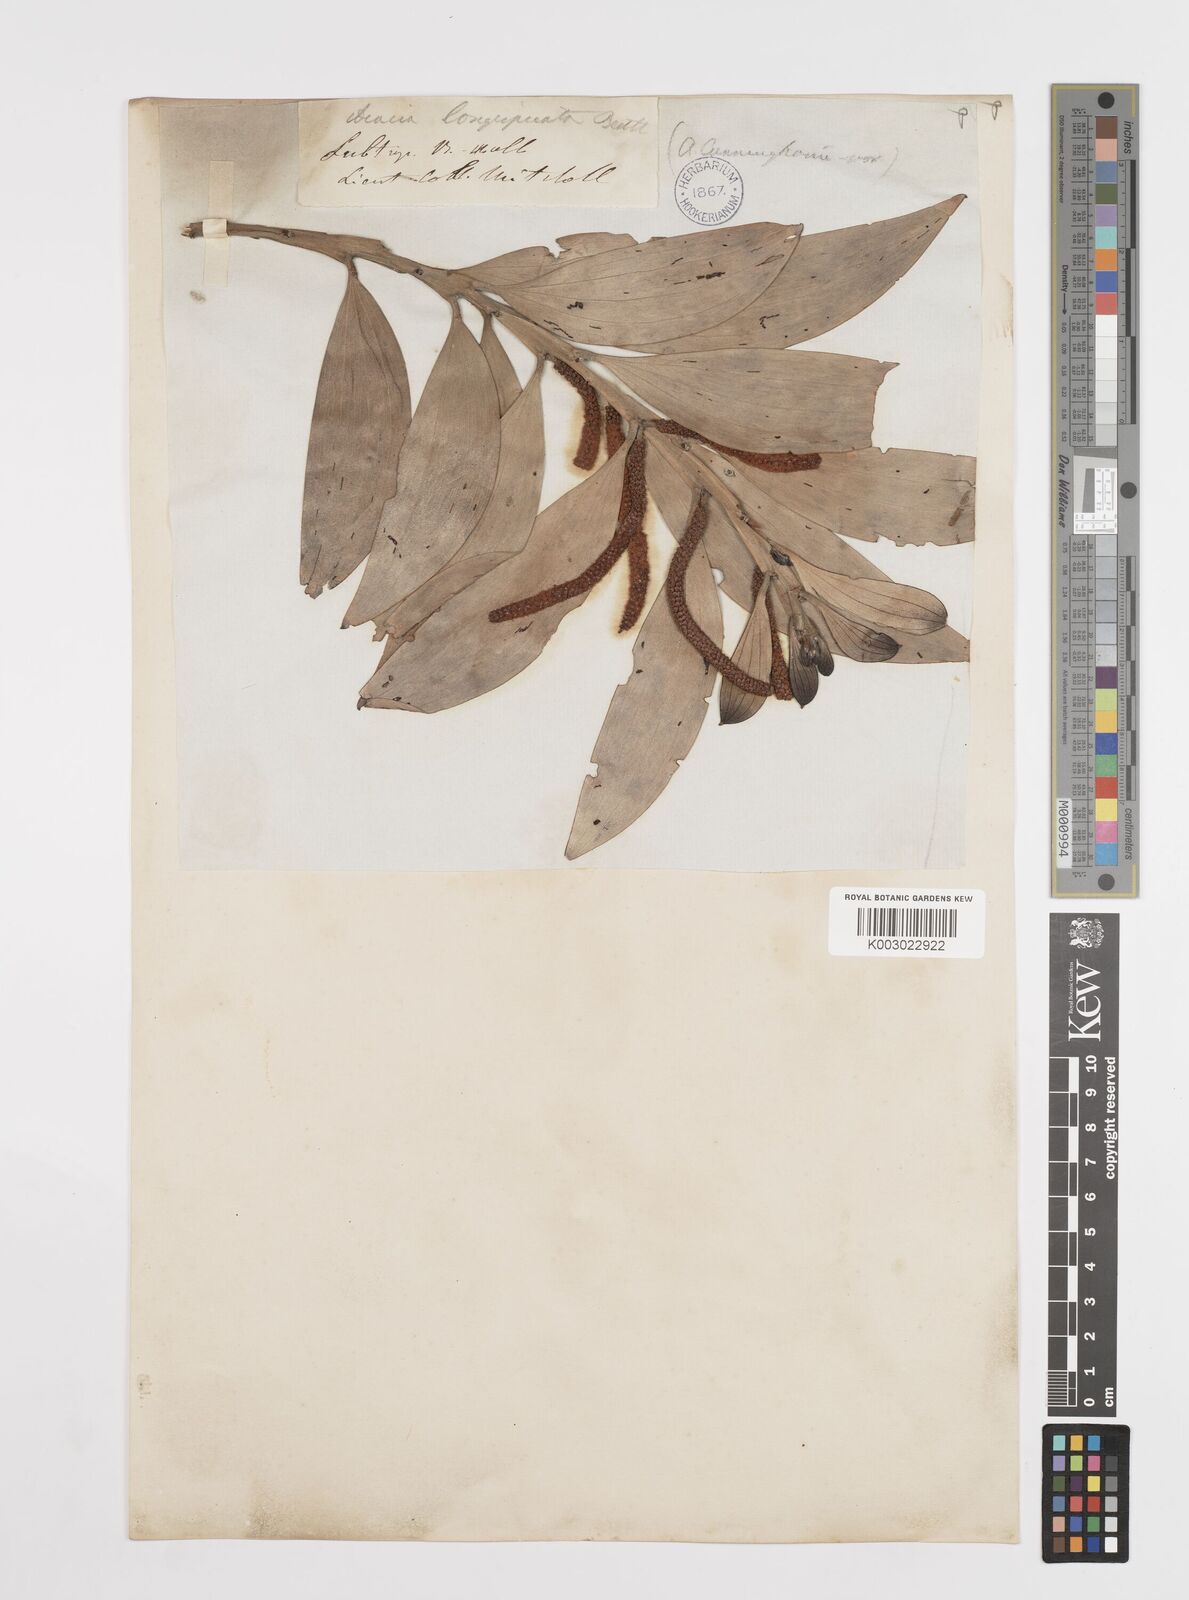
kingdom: Plantae
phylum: Tracheophyta
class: Magnoliopsida
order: Fabales
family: Fabaceae
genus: Acacia
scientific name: Acacia longispicata
